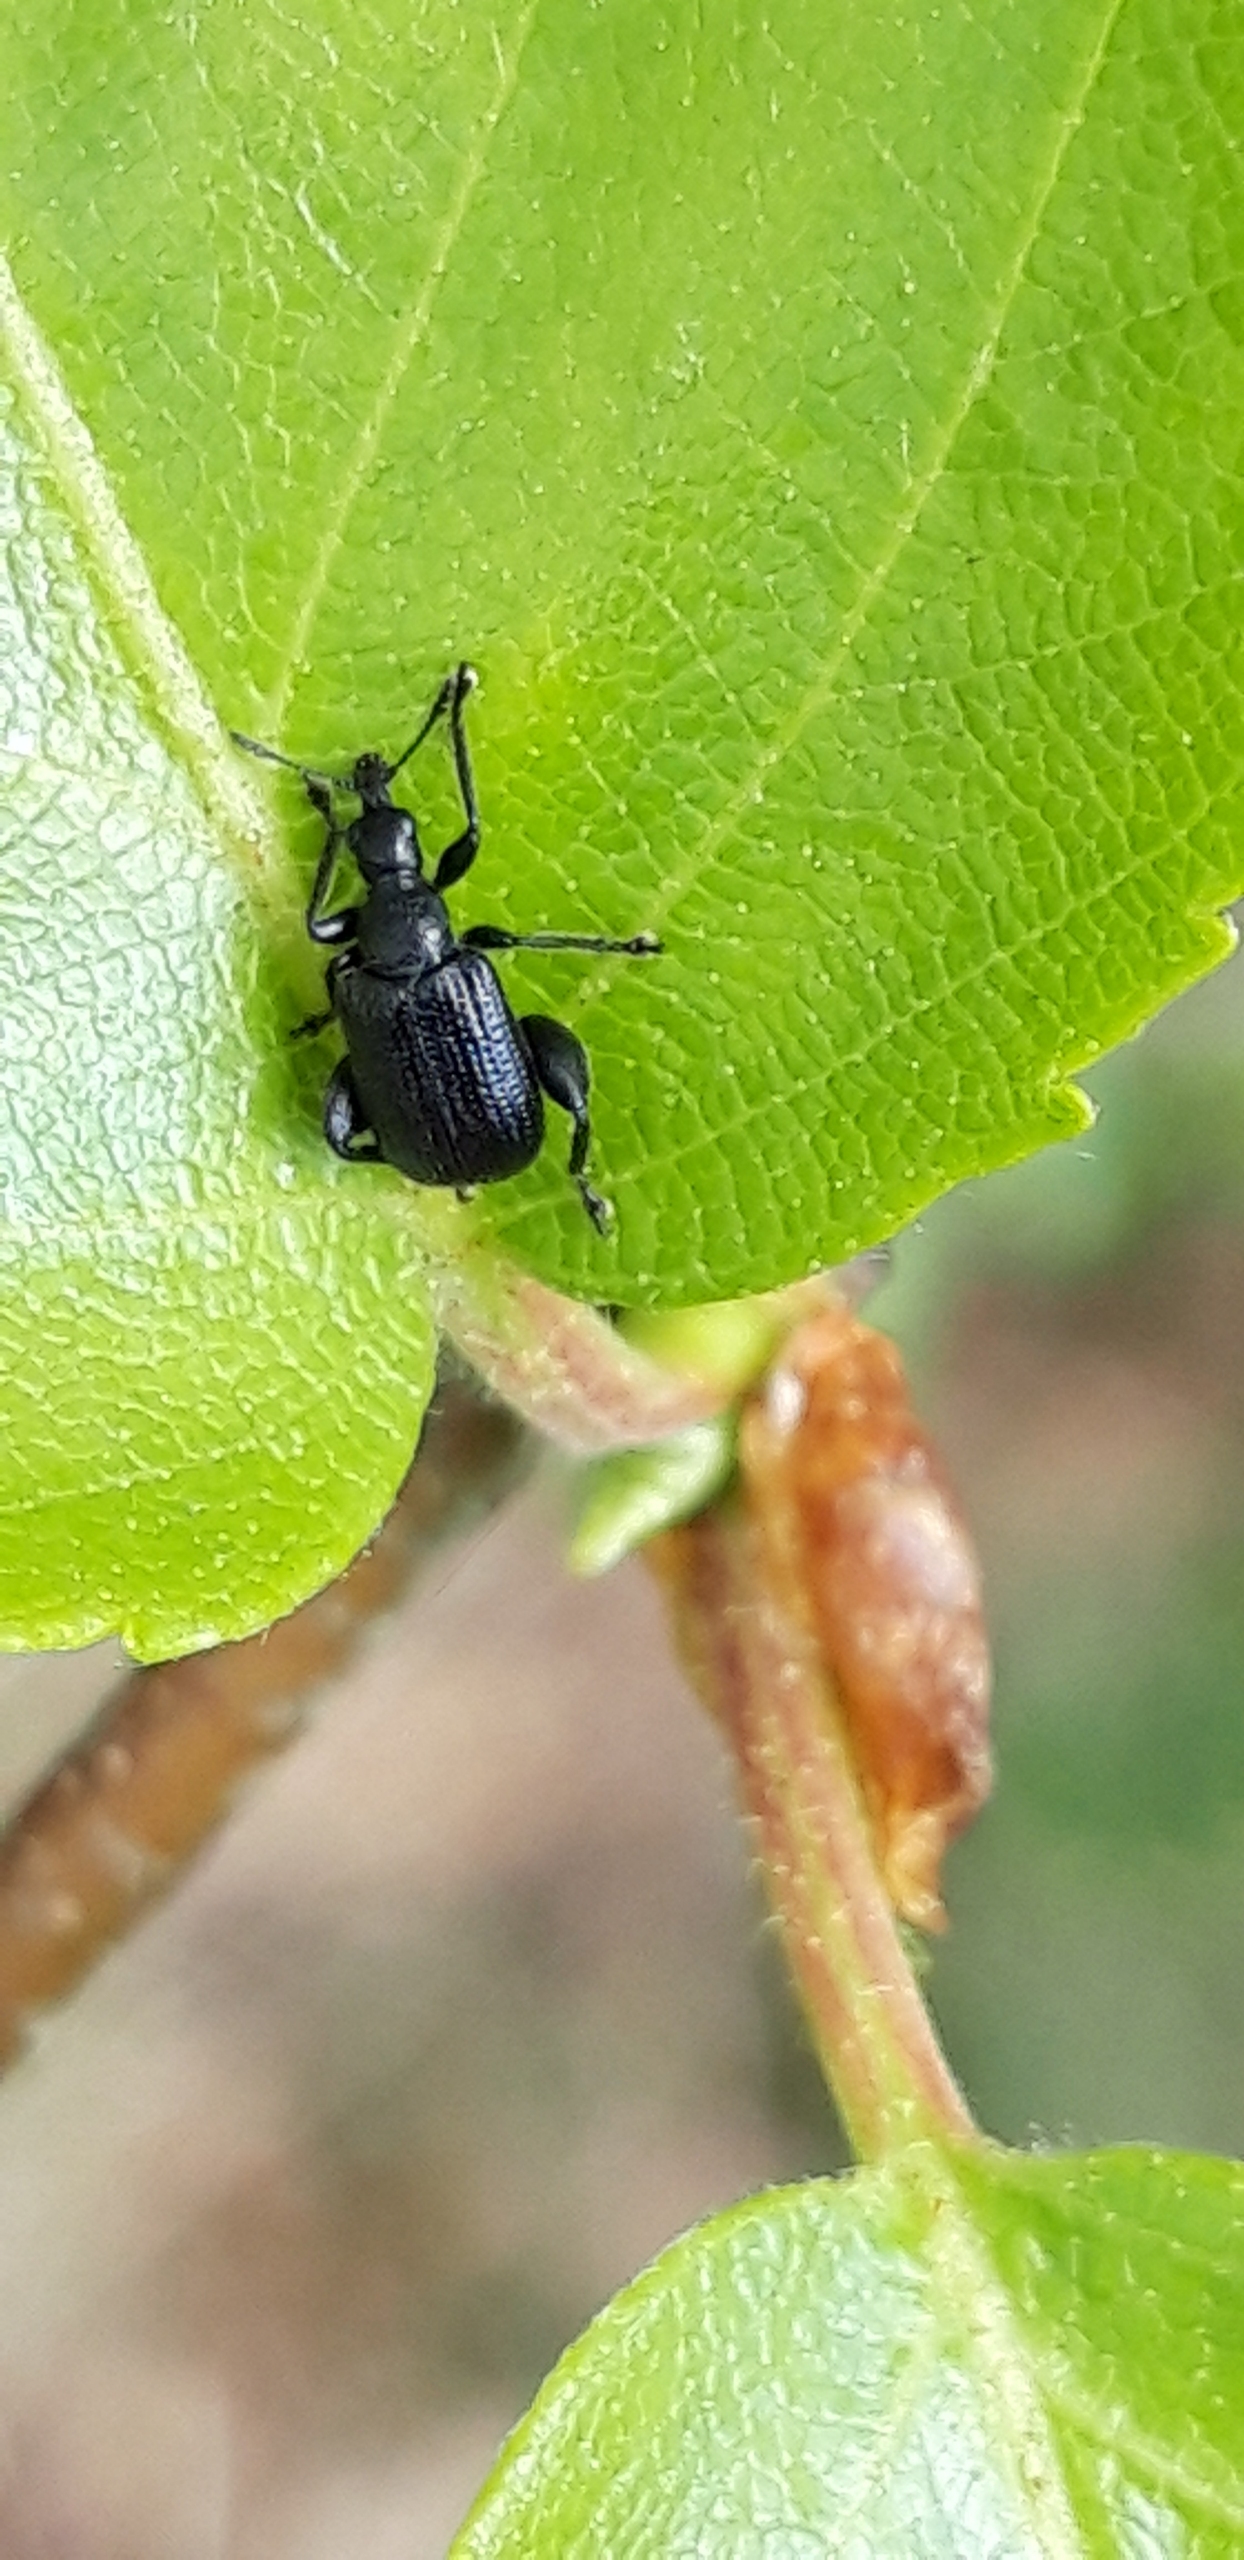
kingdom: Animalia
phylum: Arthropoda
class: Insecta
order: Coleoptera
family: Attelabidae
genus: Byctiscus
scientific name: Byctiscus betulae
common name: Birkebladruller
